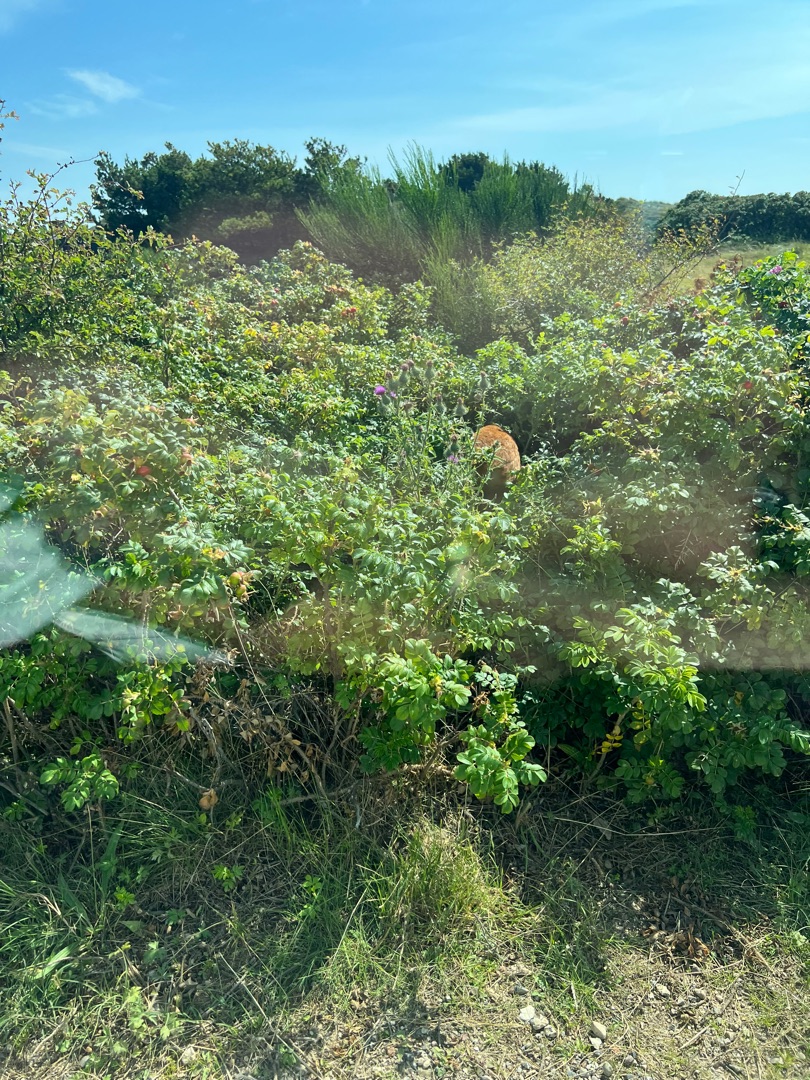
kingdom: Animalia
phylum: Chordata
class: Mammalia
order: Artiodactyla
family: Cervidae
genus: Capreolus
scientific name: Capreolus capreolus
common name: Rådyr
